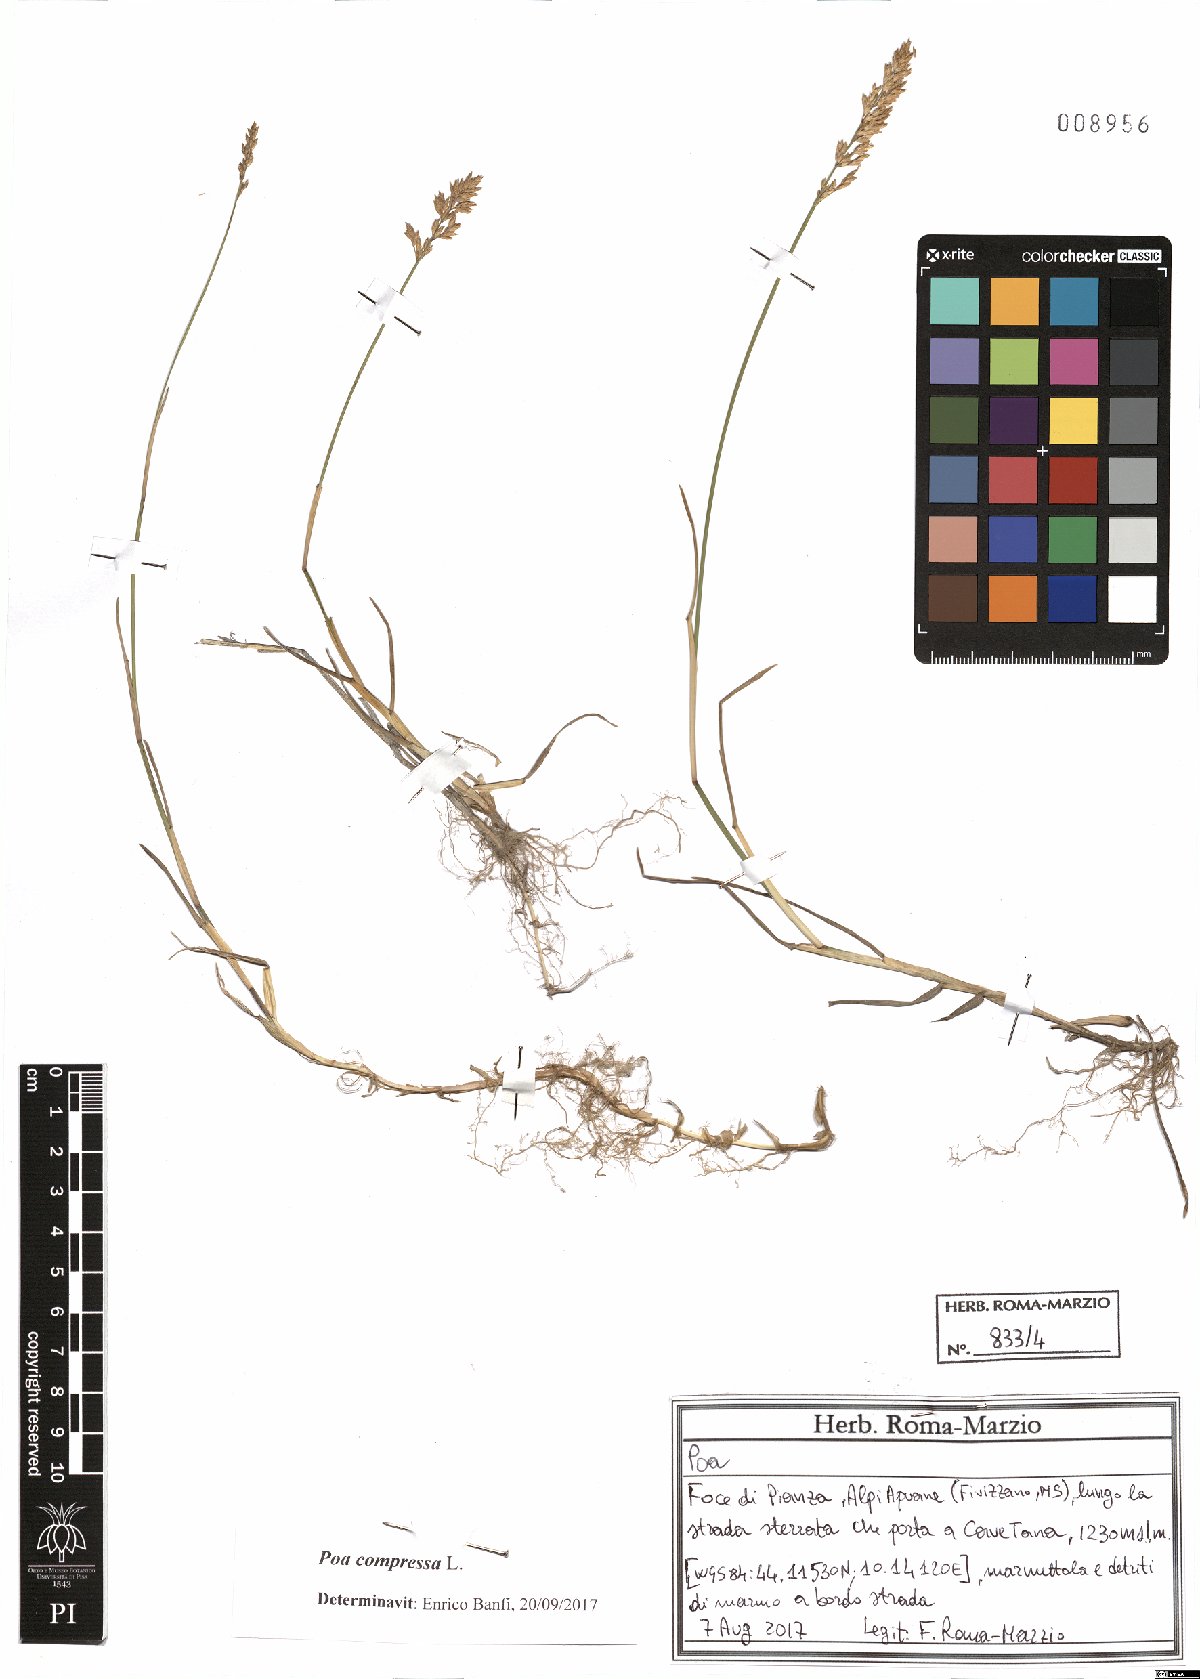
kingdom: Plantae
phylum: Tracheophyta
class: Liliopsida
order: Poales
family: Poaceae
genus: Poa
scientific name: Poa compressa
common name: Canada bluegrass
